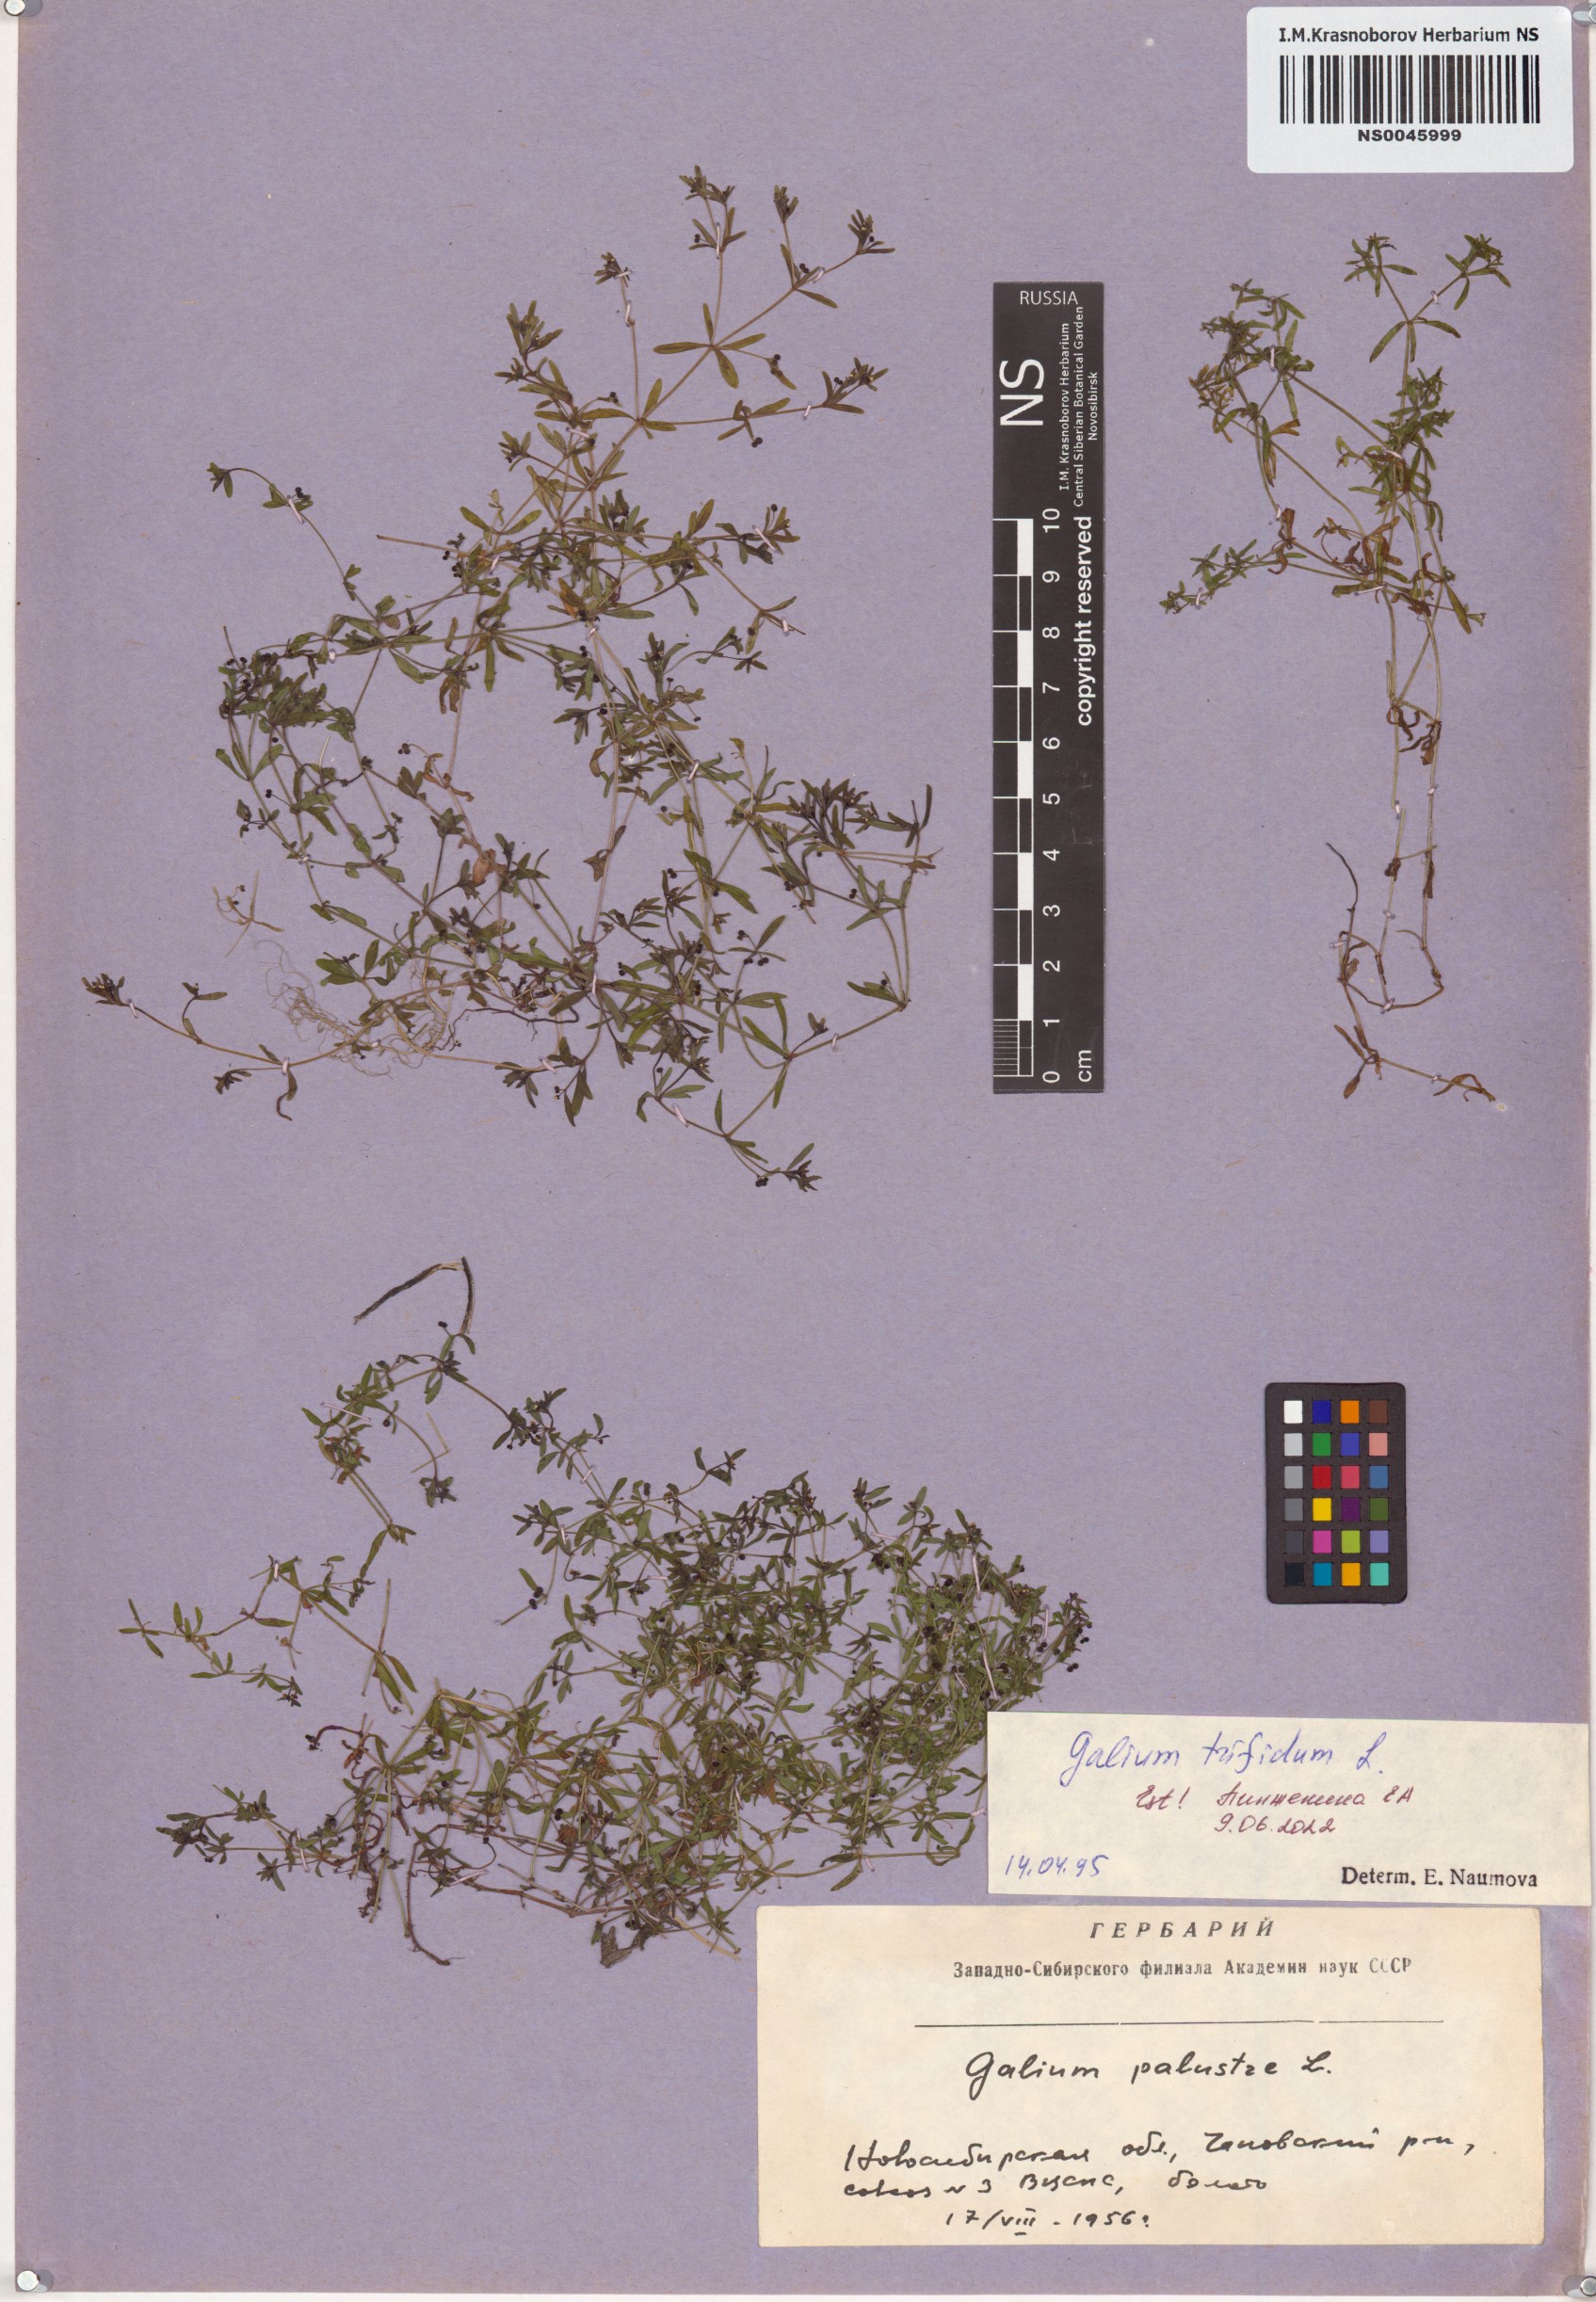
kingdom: Plantae
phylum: Tracheophyta
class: Magnoliopsida
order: Gentianales
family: Rubiaceae
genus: Galium
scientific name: Galium trifidum
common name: Small bedstraw
